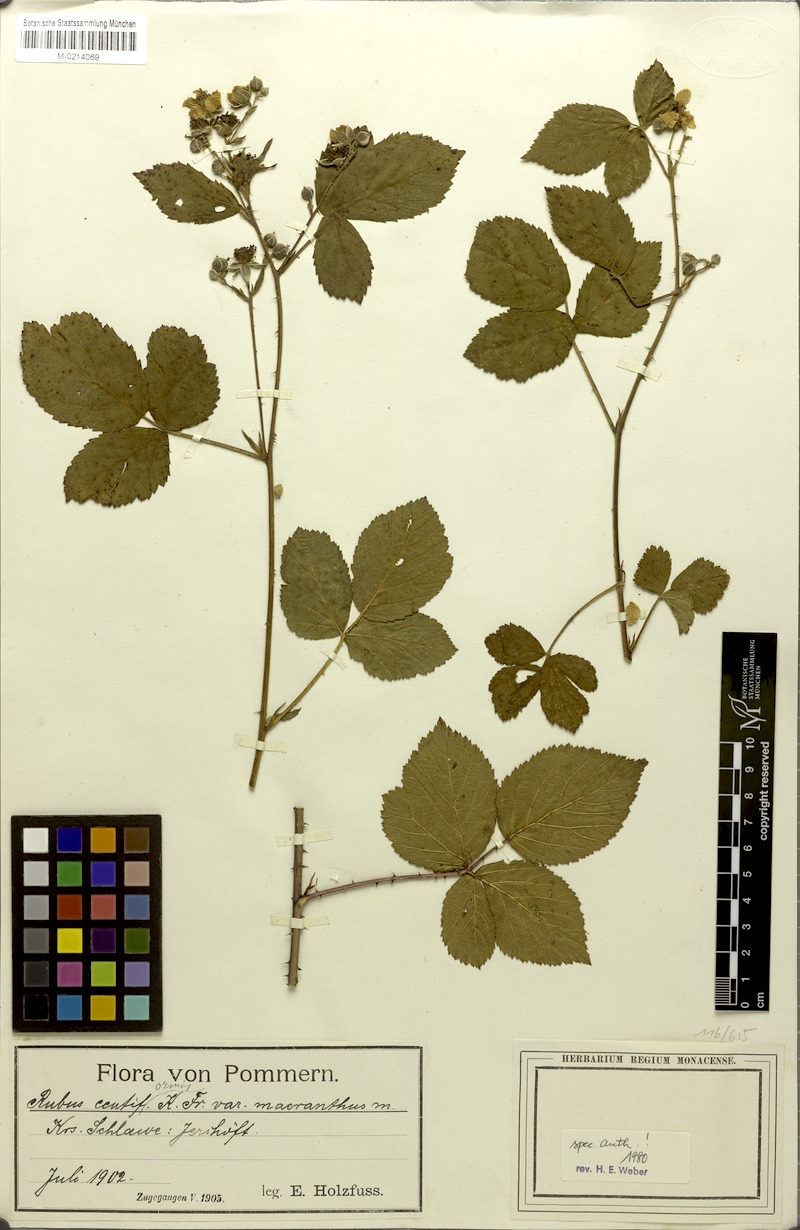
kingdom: Plantae
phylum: Tracheophyta
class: Magnoliopsida
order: Rosales
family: Rosaceae
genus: Rubus
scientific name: Rubus centiformis
